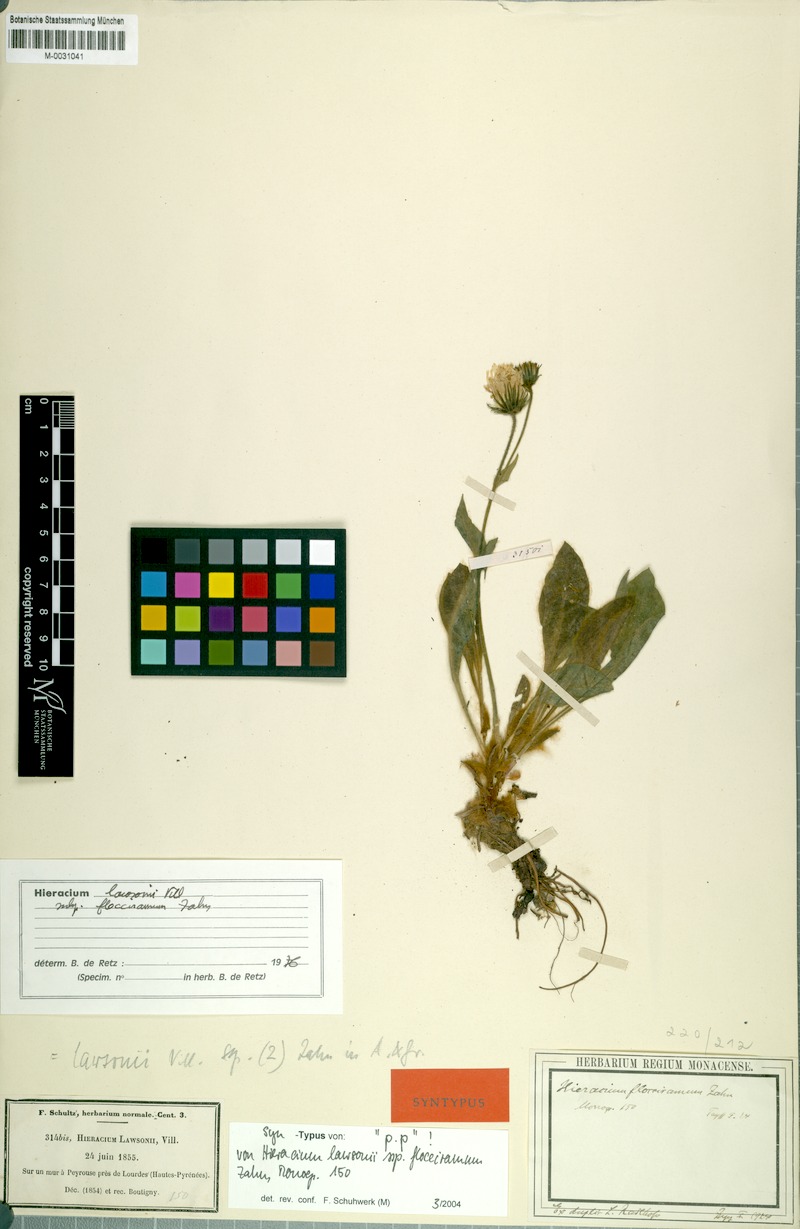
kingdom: Plantae
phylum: Tracheophyta
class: Magnoliopsida
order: Asterales
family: Asteraceae
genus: Hieracium
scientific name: Hieracium lawsonii
